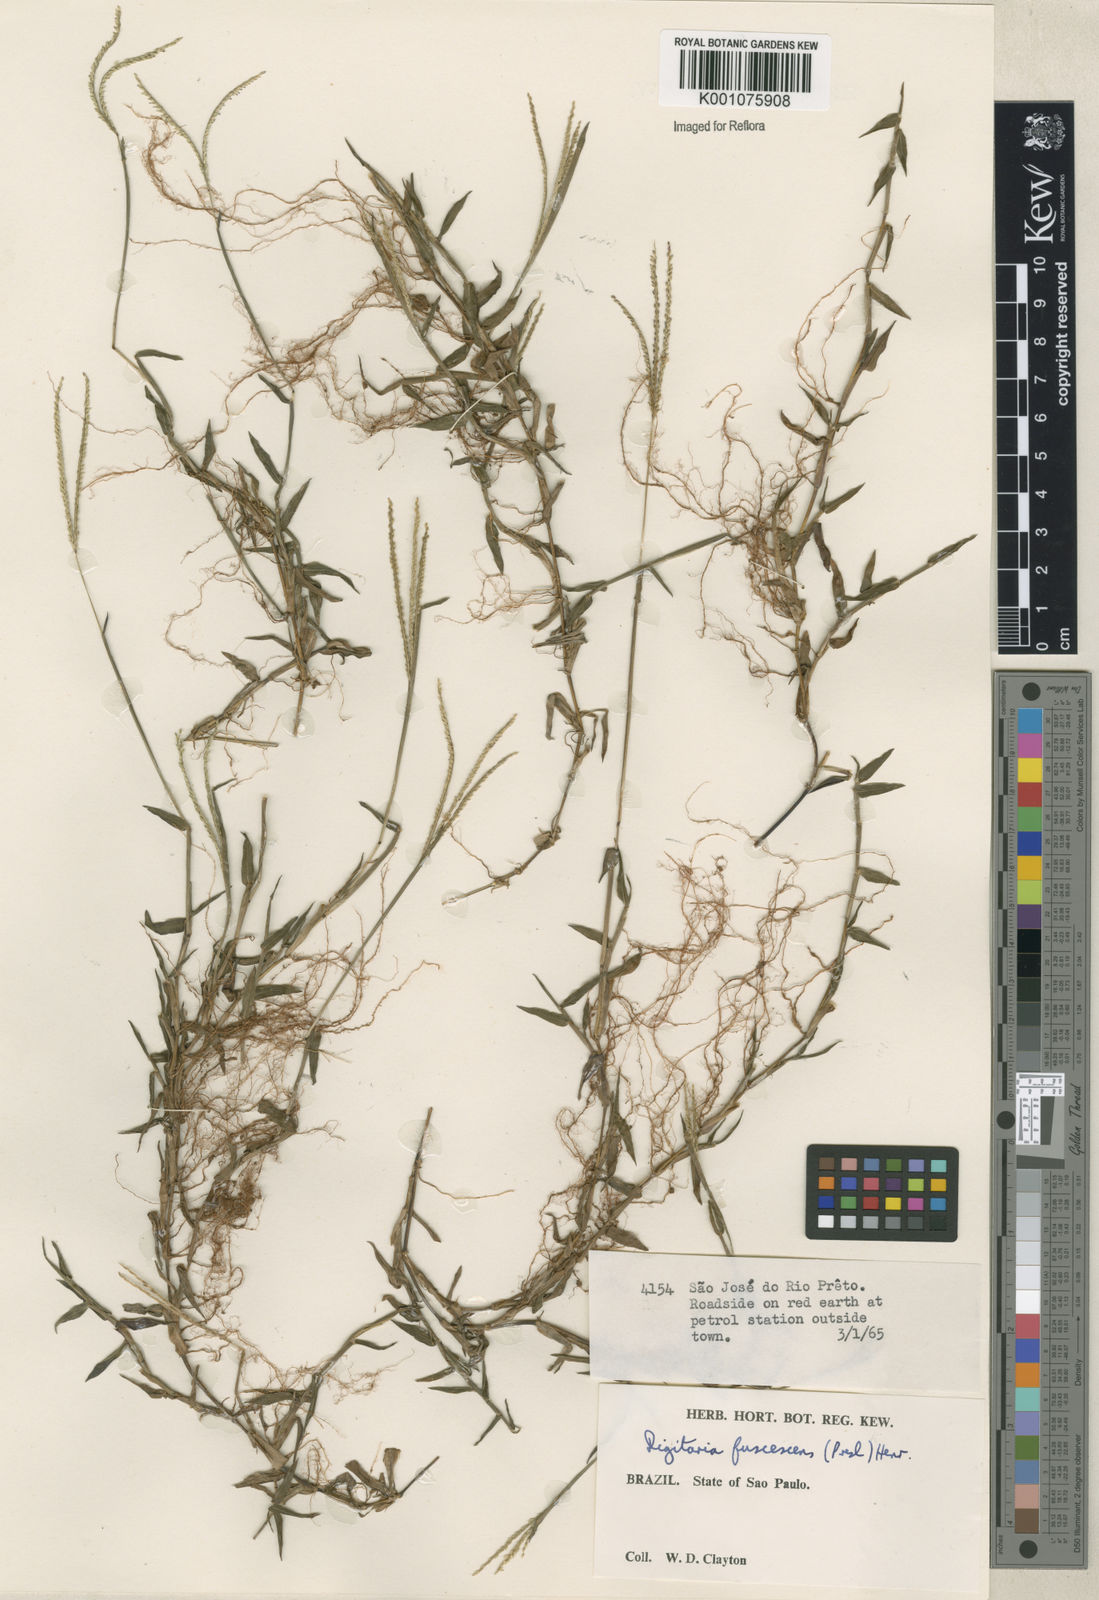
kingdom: Plantae
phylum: Tracheophyta
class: Liliopsida
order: Poales
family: Poaceae
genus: Digitaria
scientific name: Digitaria fuscescens
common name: Yellow crabgrass
